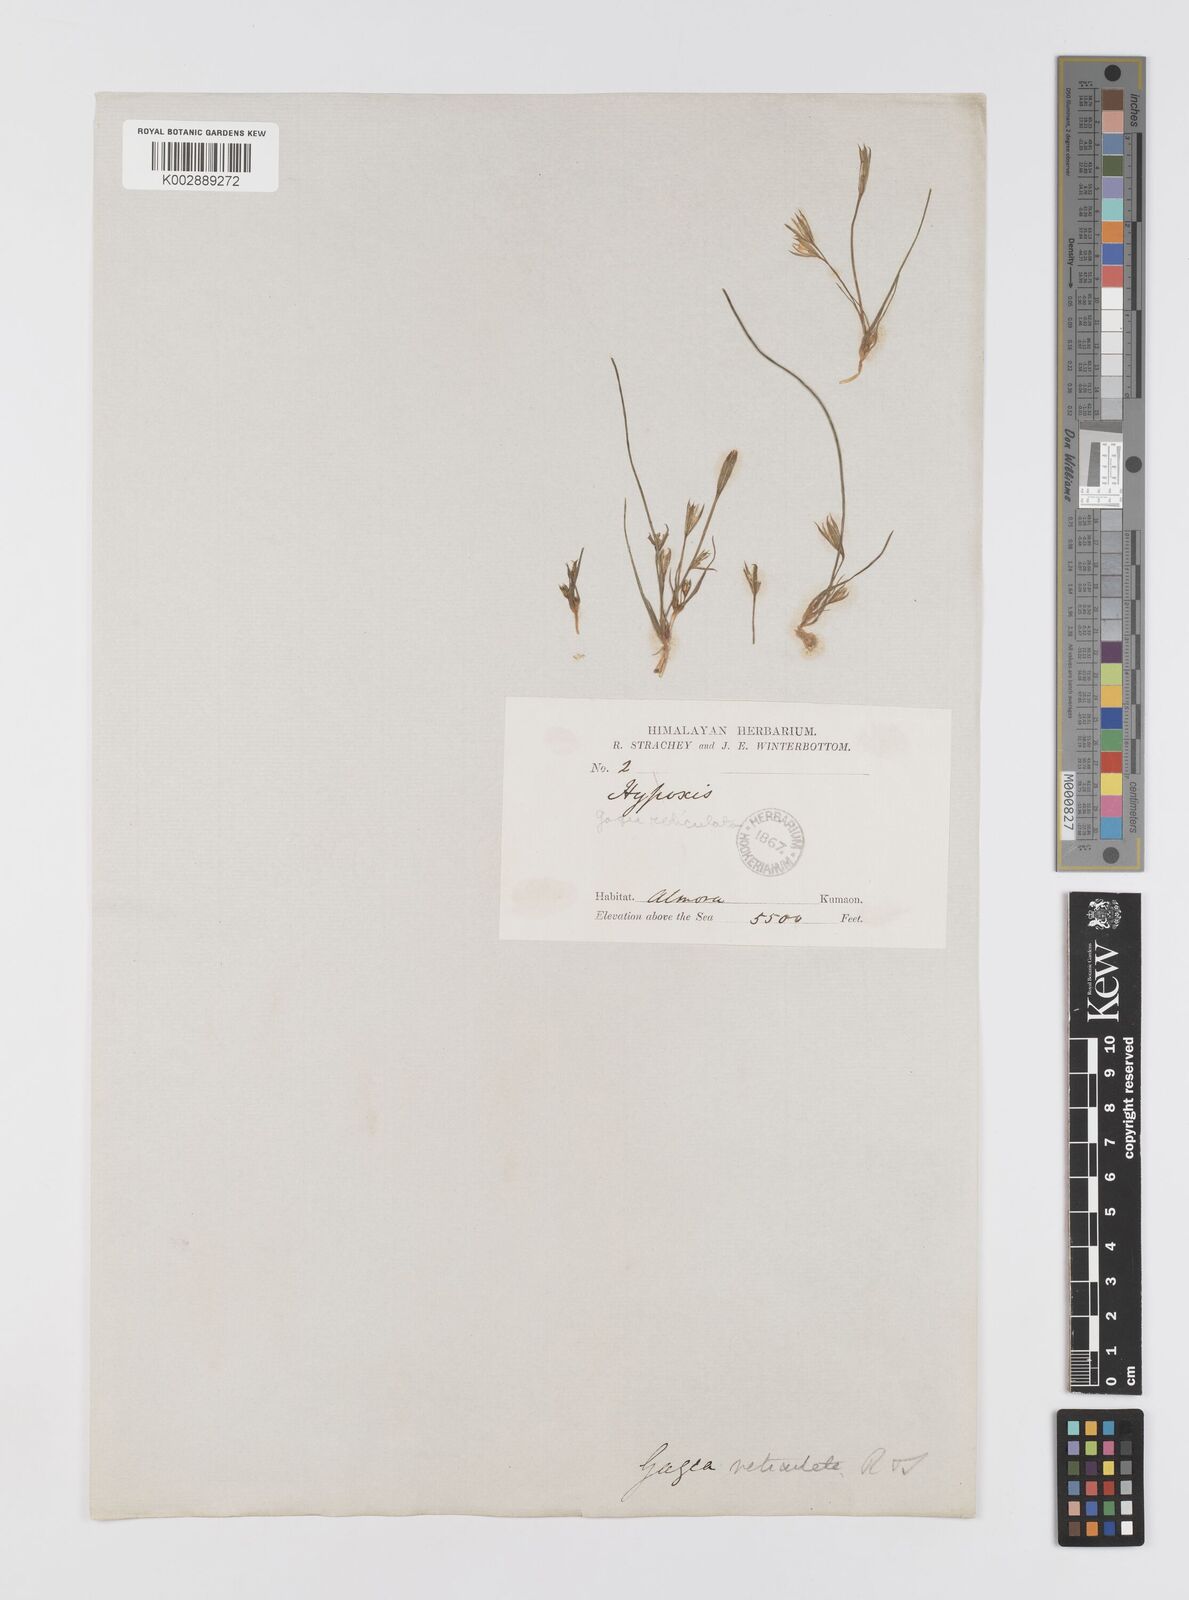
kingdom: Plantae
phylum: Tracheophyta
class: Liliopsida
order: Liliales
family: Liliaceae
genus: Gagea
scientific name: Gagea reticulata
